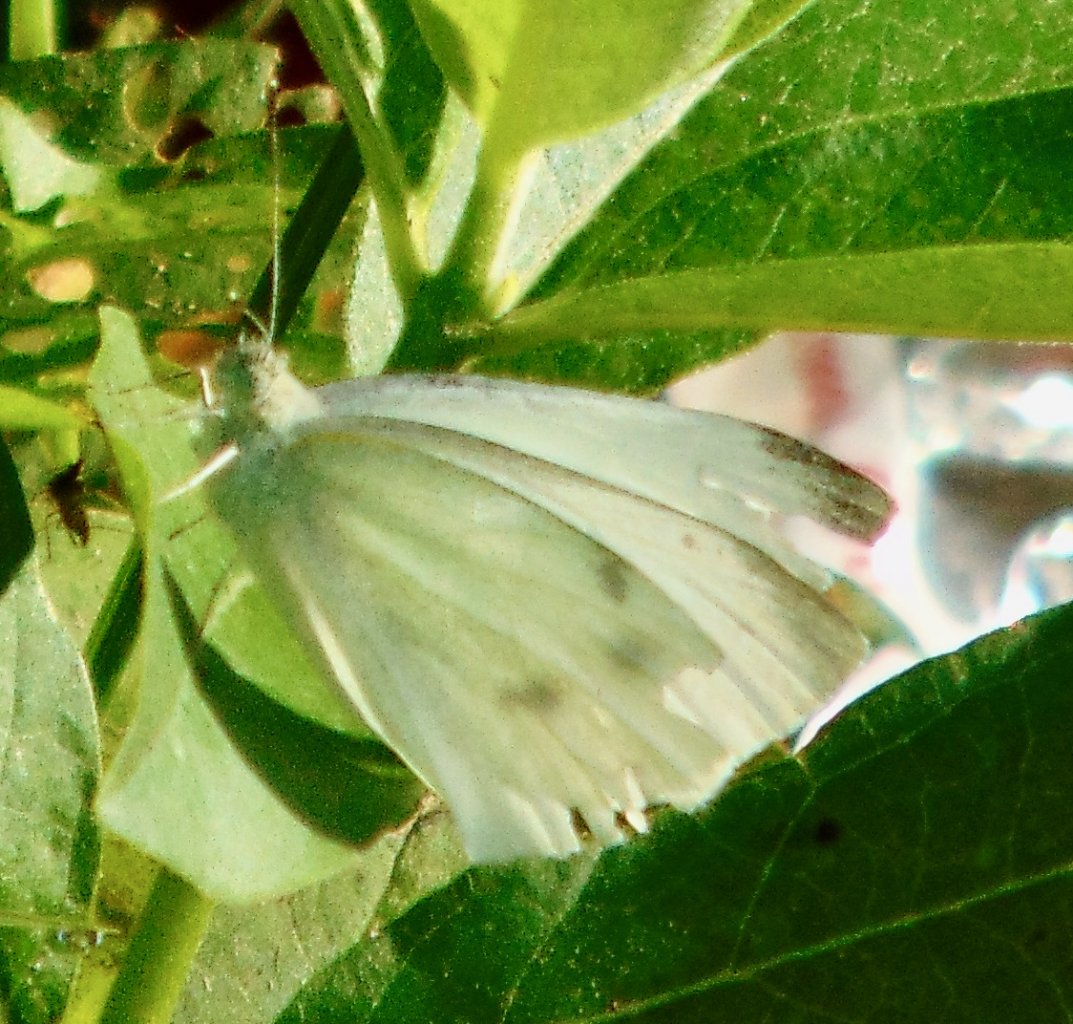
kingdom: Animalia
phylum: Arthropoda
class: Insecta
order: Lepidoptera
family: Pieridae
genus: Pieris
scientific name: Pieris rapae
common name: Cabbage White
